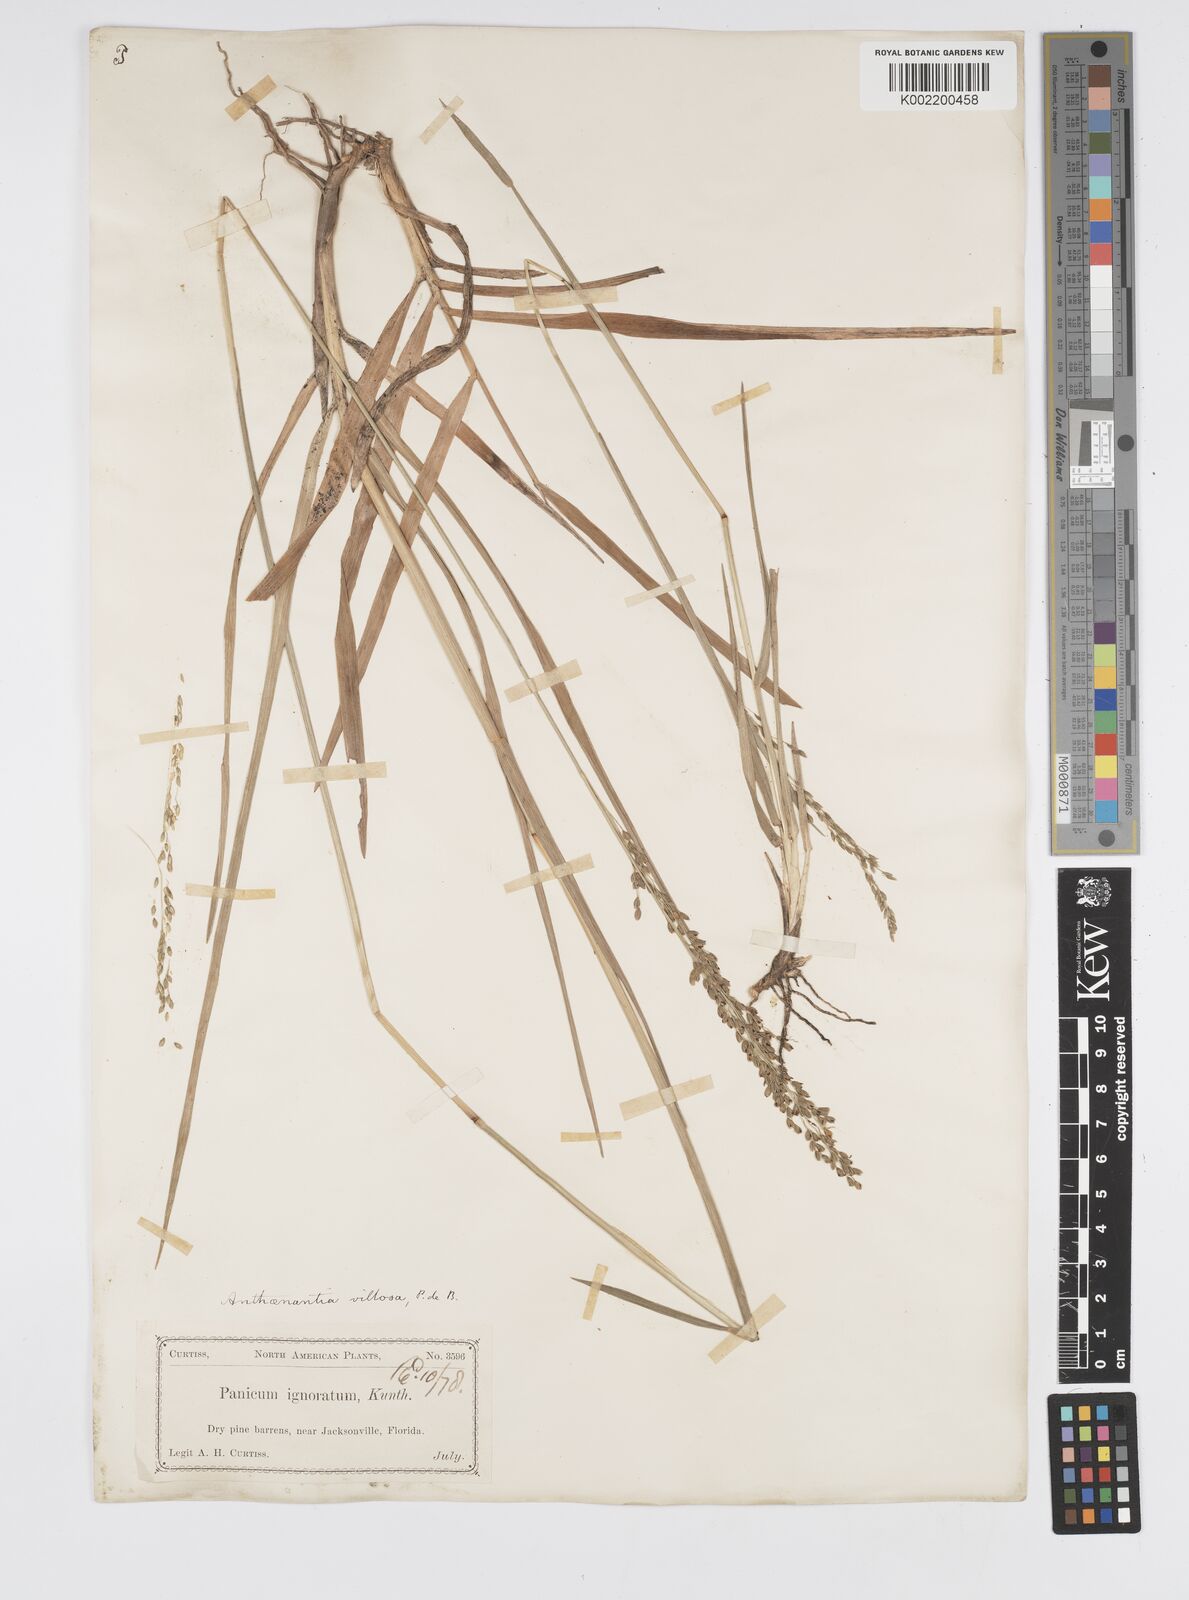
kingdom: Plantae
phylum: Tracheophyta
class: Liliopsida
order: Poales
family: Poaceae
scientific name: Poaceae
